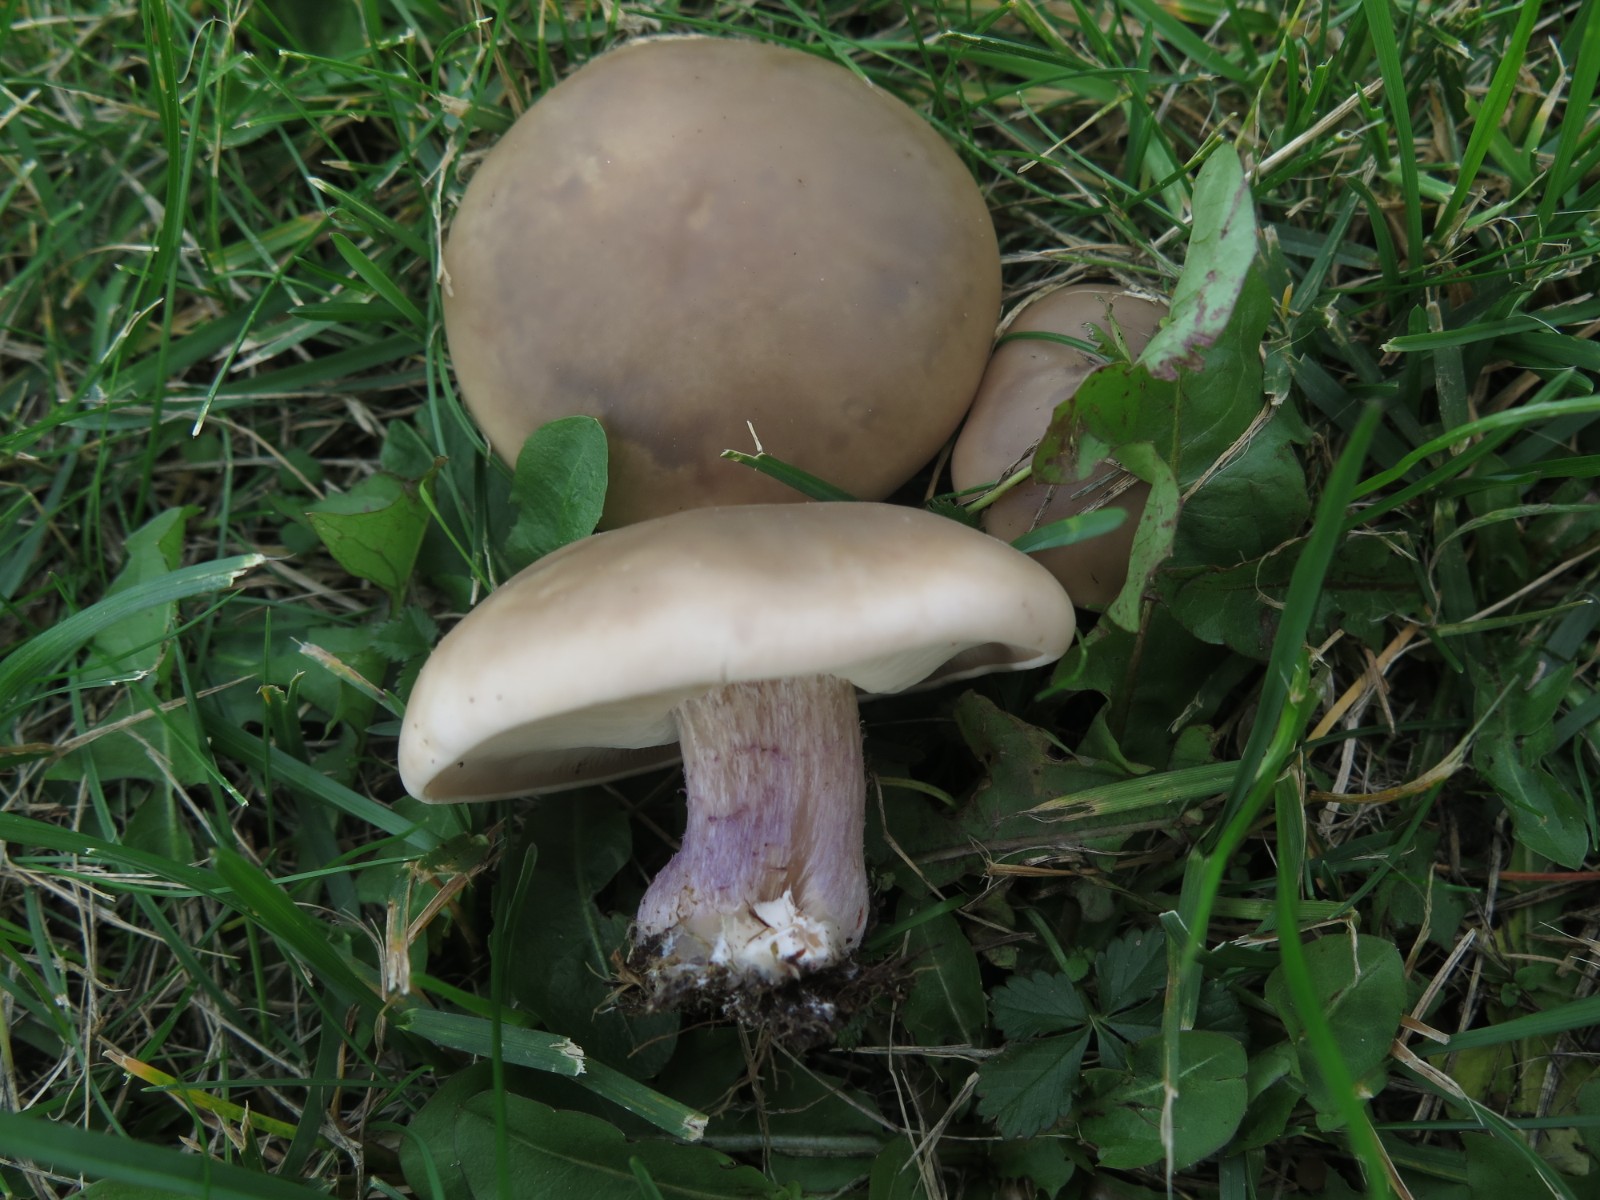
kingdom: Fungi
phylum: Basidiomycota
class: Agaricomycetes
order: Agaricales
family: Tricholomataceae
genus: Lepista
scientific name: Lepista personata
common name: bleg hekseringshat
